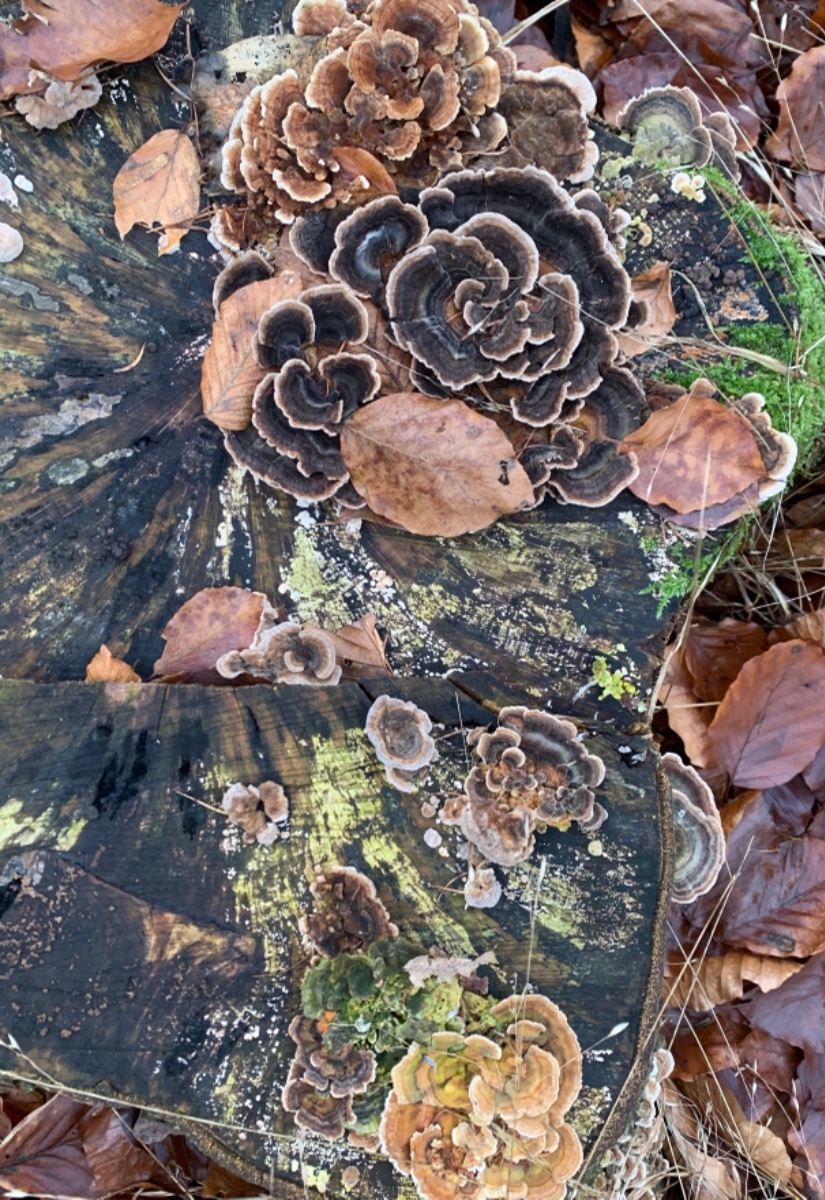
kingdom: Fungi
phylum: Basidiomycota
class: Agaricomycetes
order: Polyporales
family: Polyporaceae
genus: Trametes
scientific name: Trametes versicolor
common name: broget læderporesvamp
